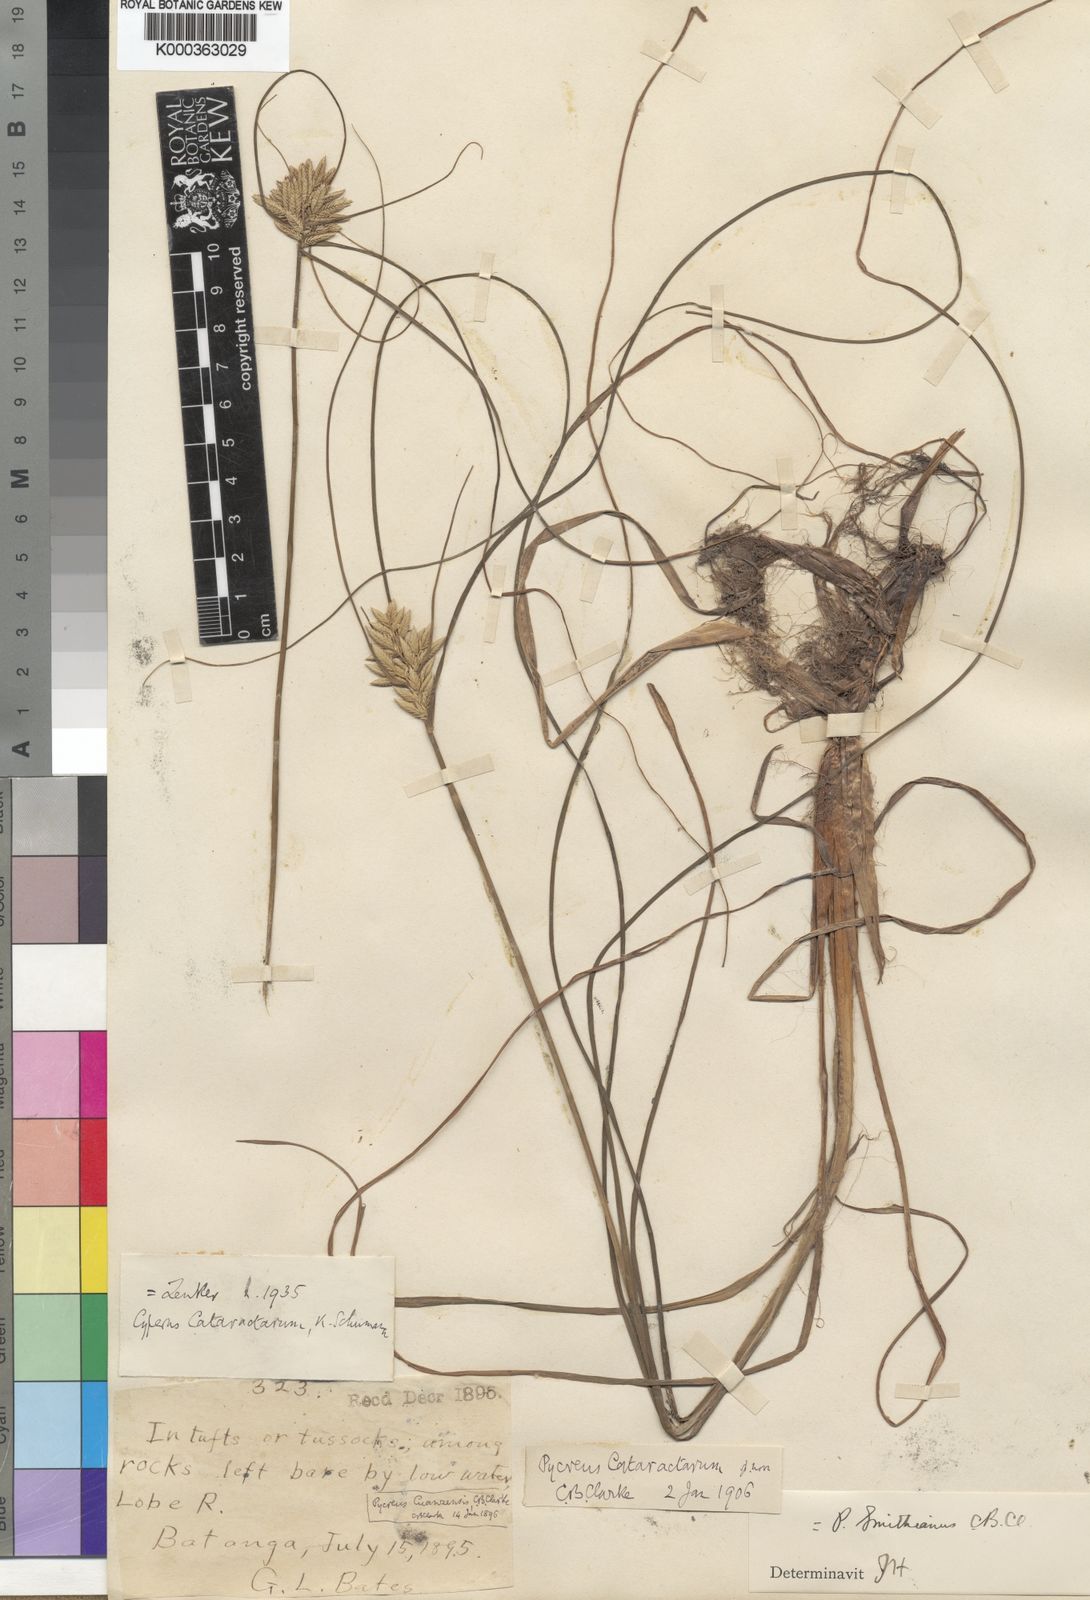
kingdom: Plantae
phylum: Tracheophyta
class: Liliopsida
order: Poales
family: Cyperaceae
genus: Cyperus
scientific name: Cyperus smithianus
